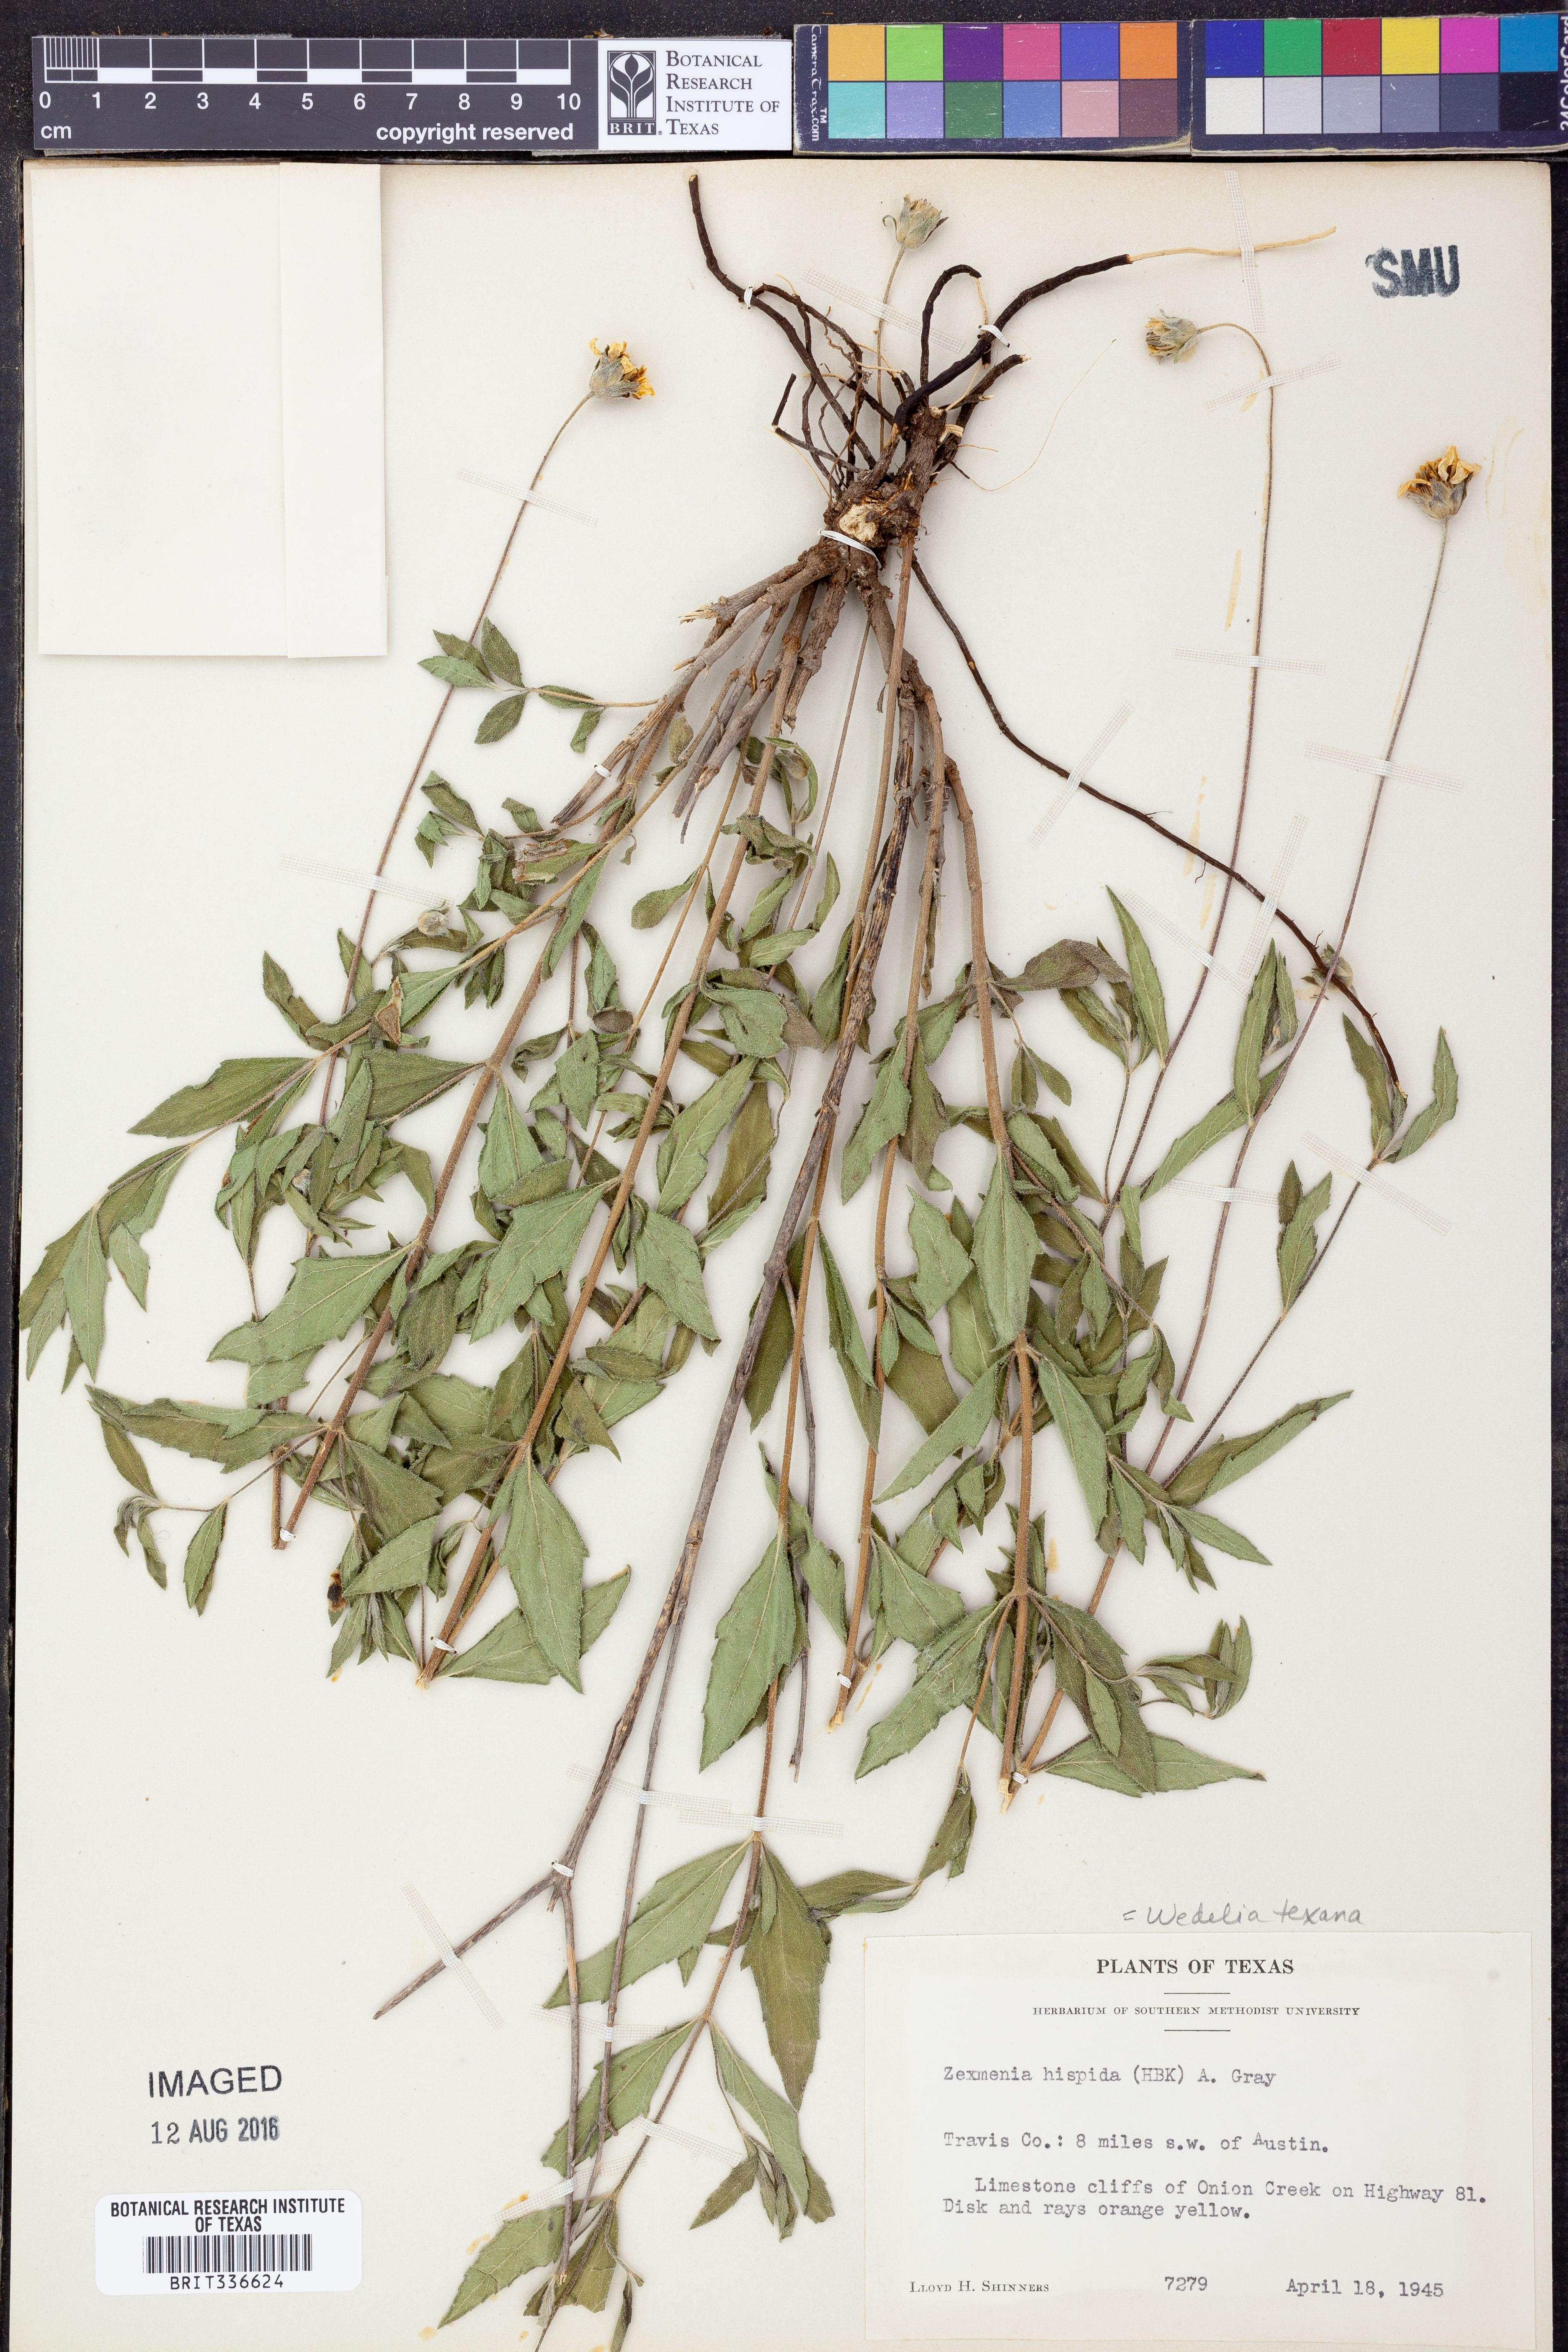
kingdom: Plantae
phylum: Tracheophyta
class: Magnoliopsida
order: Asterales
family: Asteraceae
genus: Wedelia
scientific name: Wedelia acapulcensis
